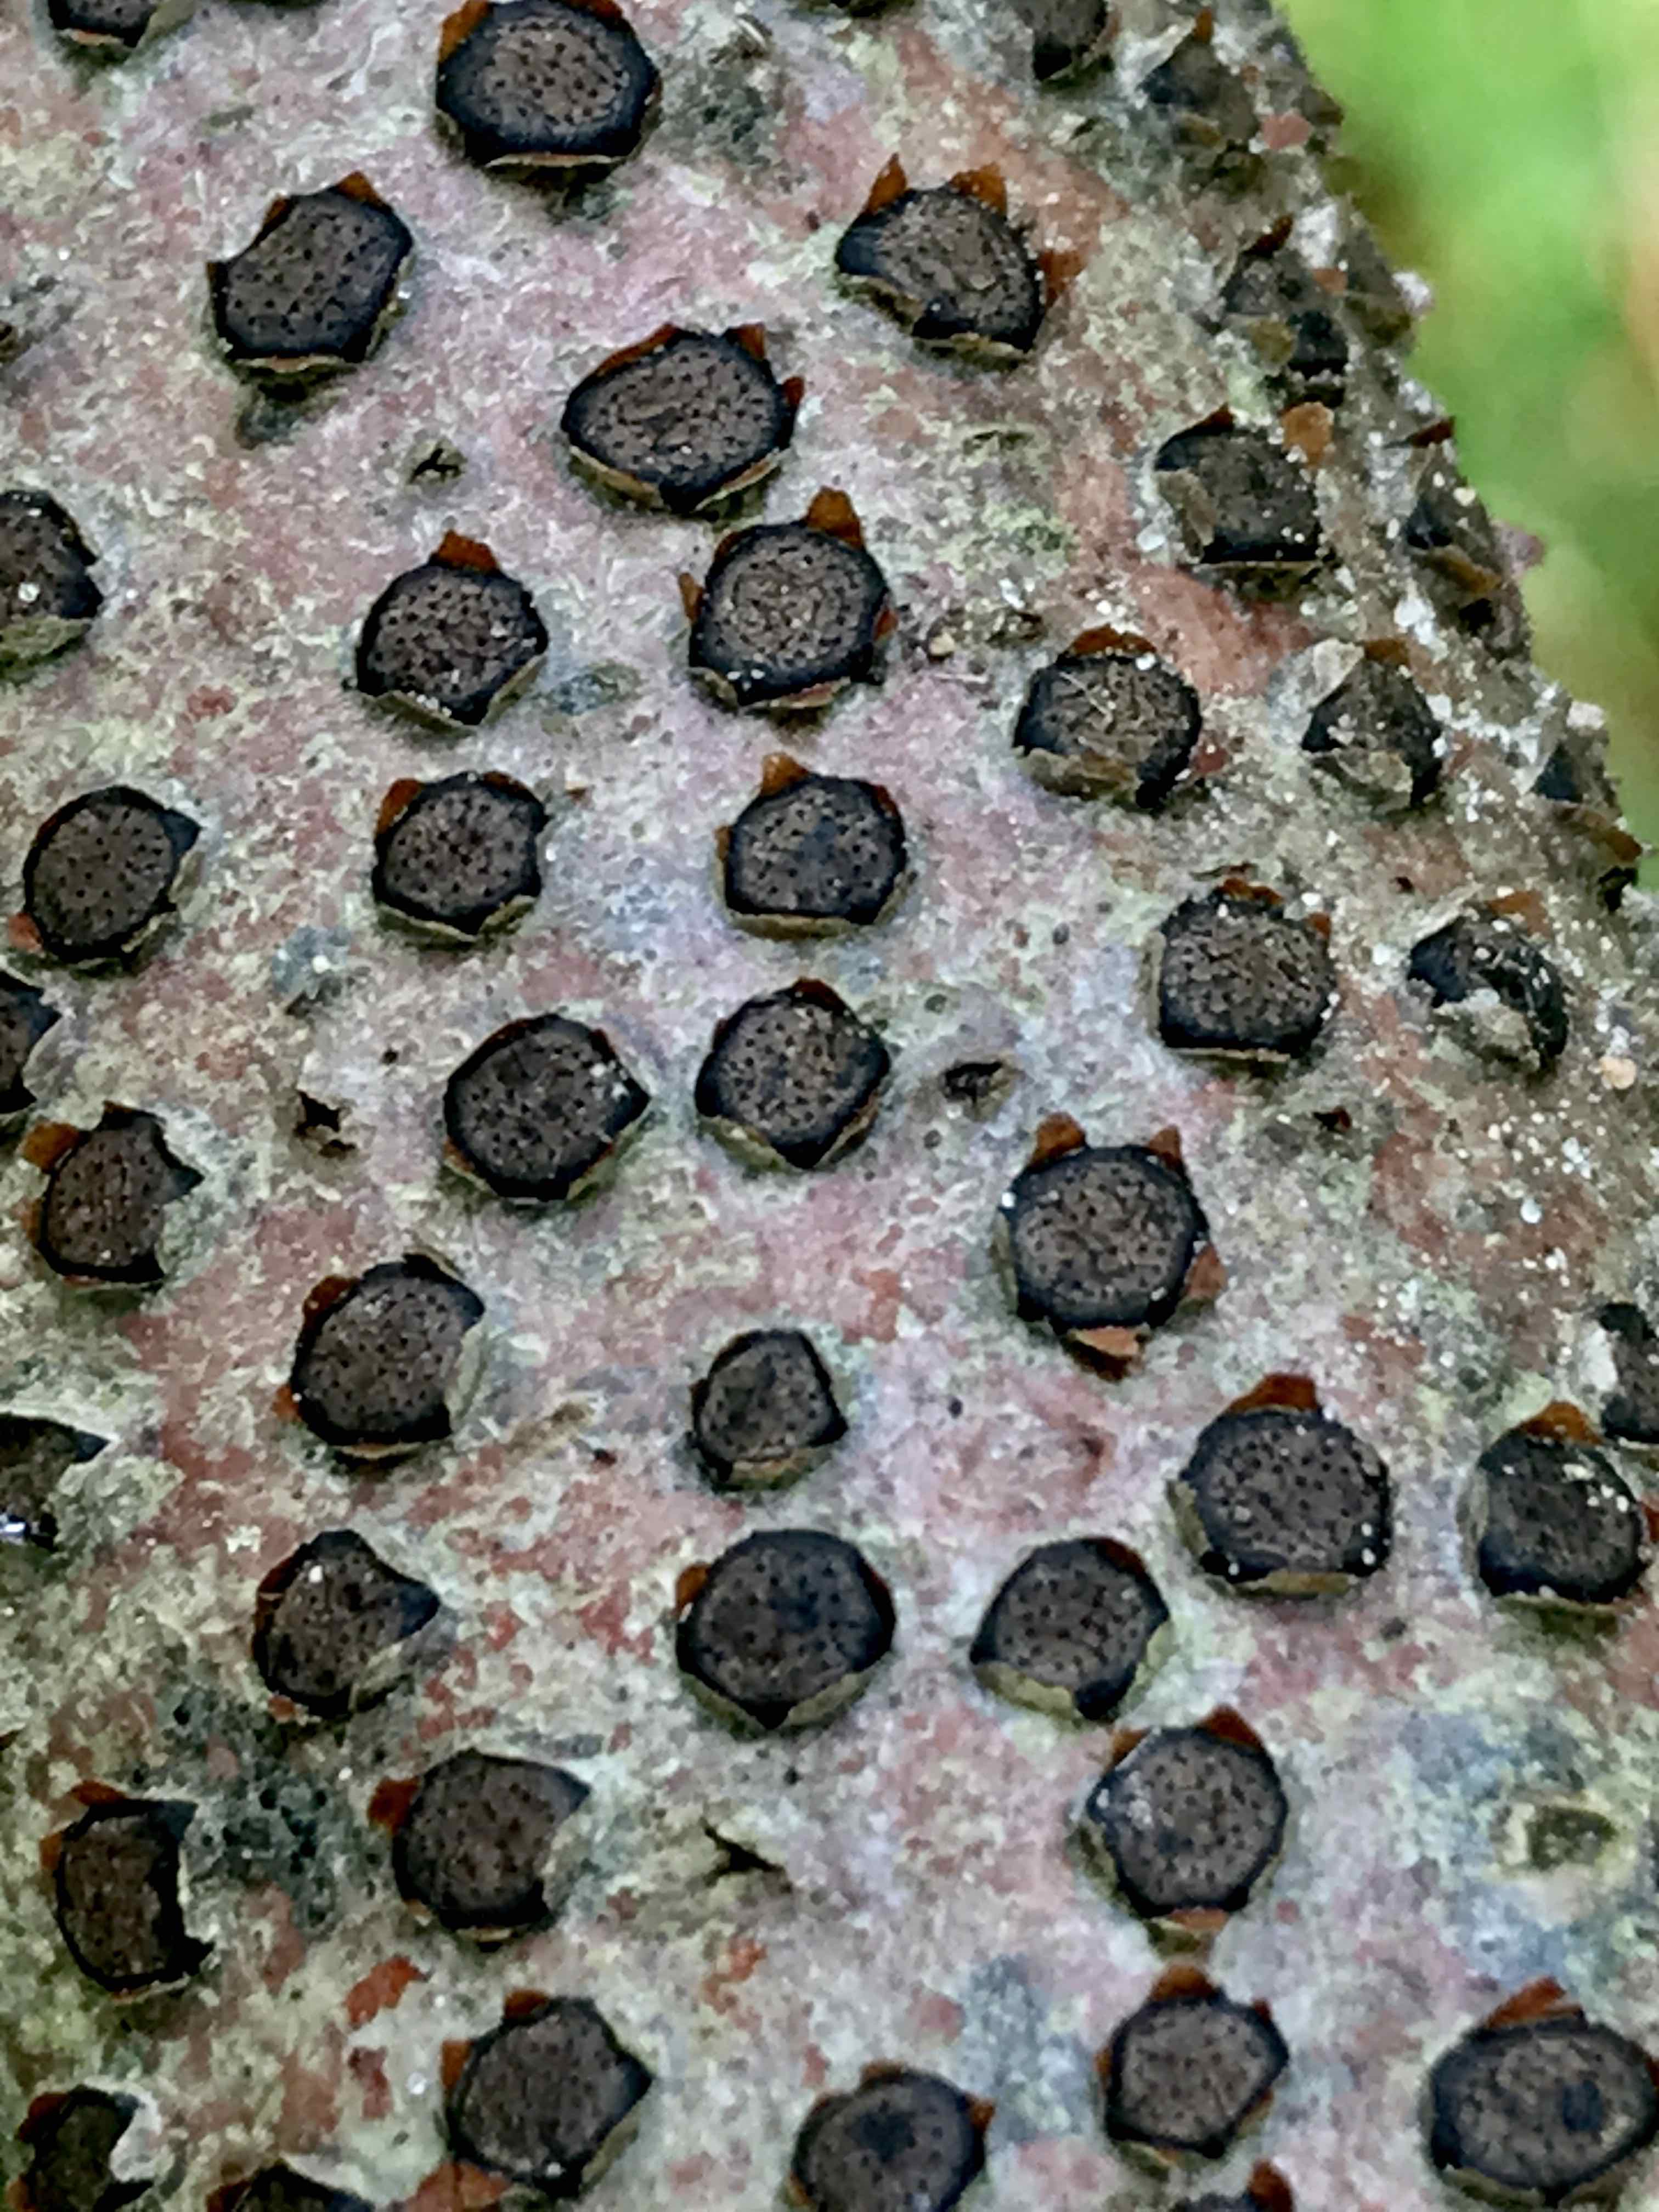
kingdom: Fungi
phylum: Ascomycota
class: Sordariomycetes
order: Xylariales
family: Diatrypaceae
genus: Diatrype
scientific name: Diatrype disciformis
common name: kant-kulskorpe
